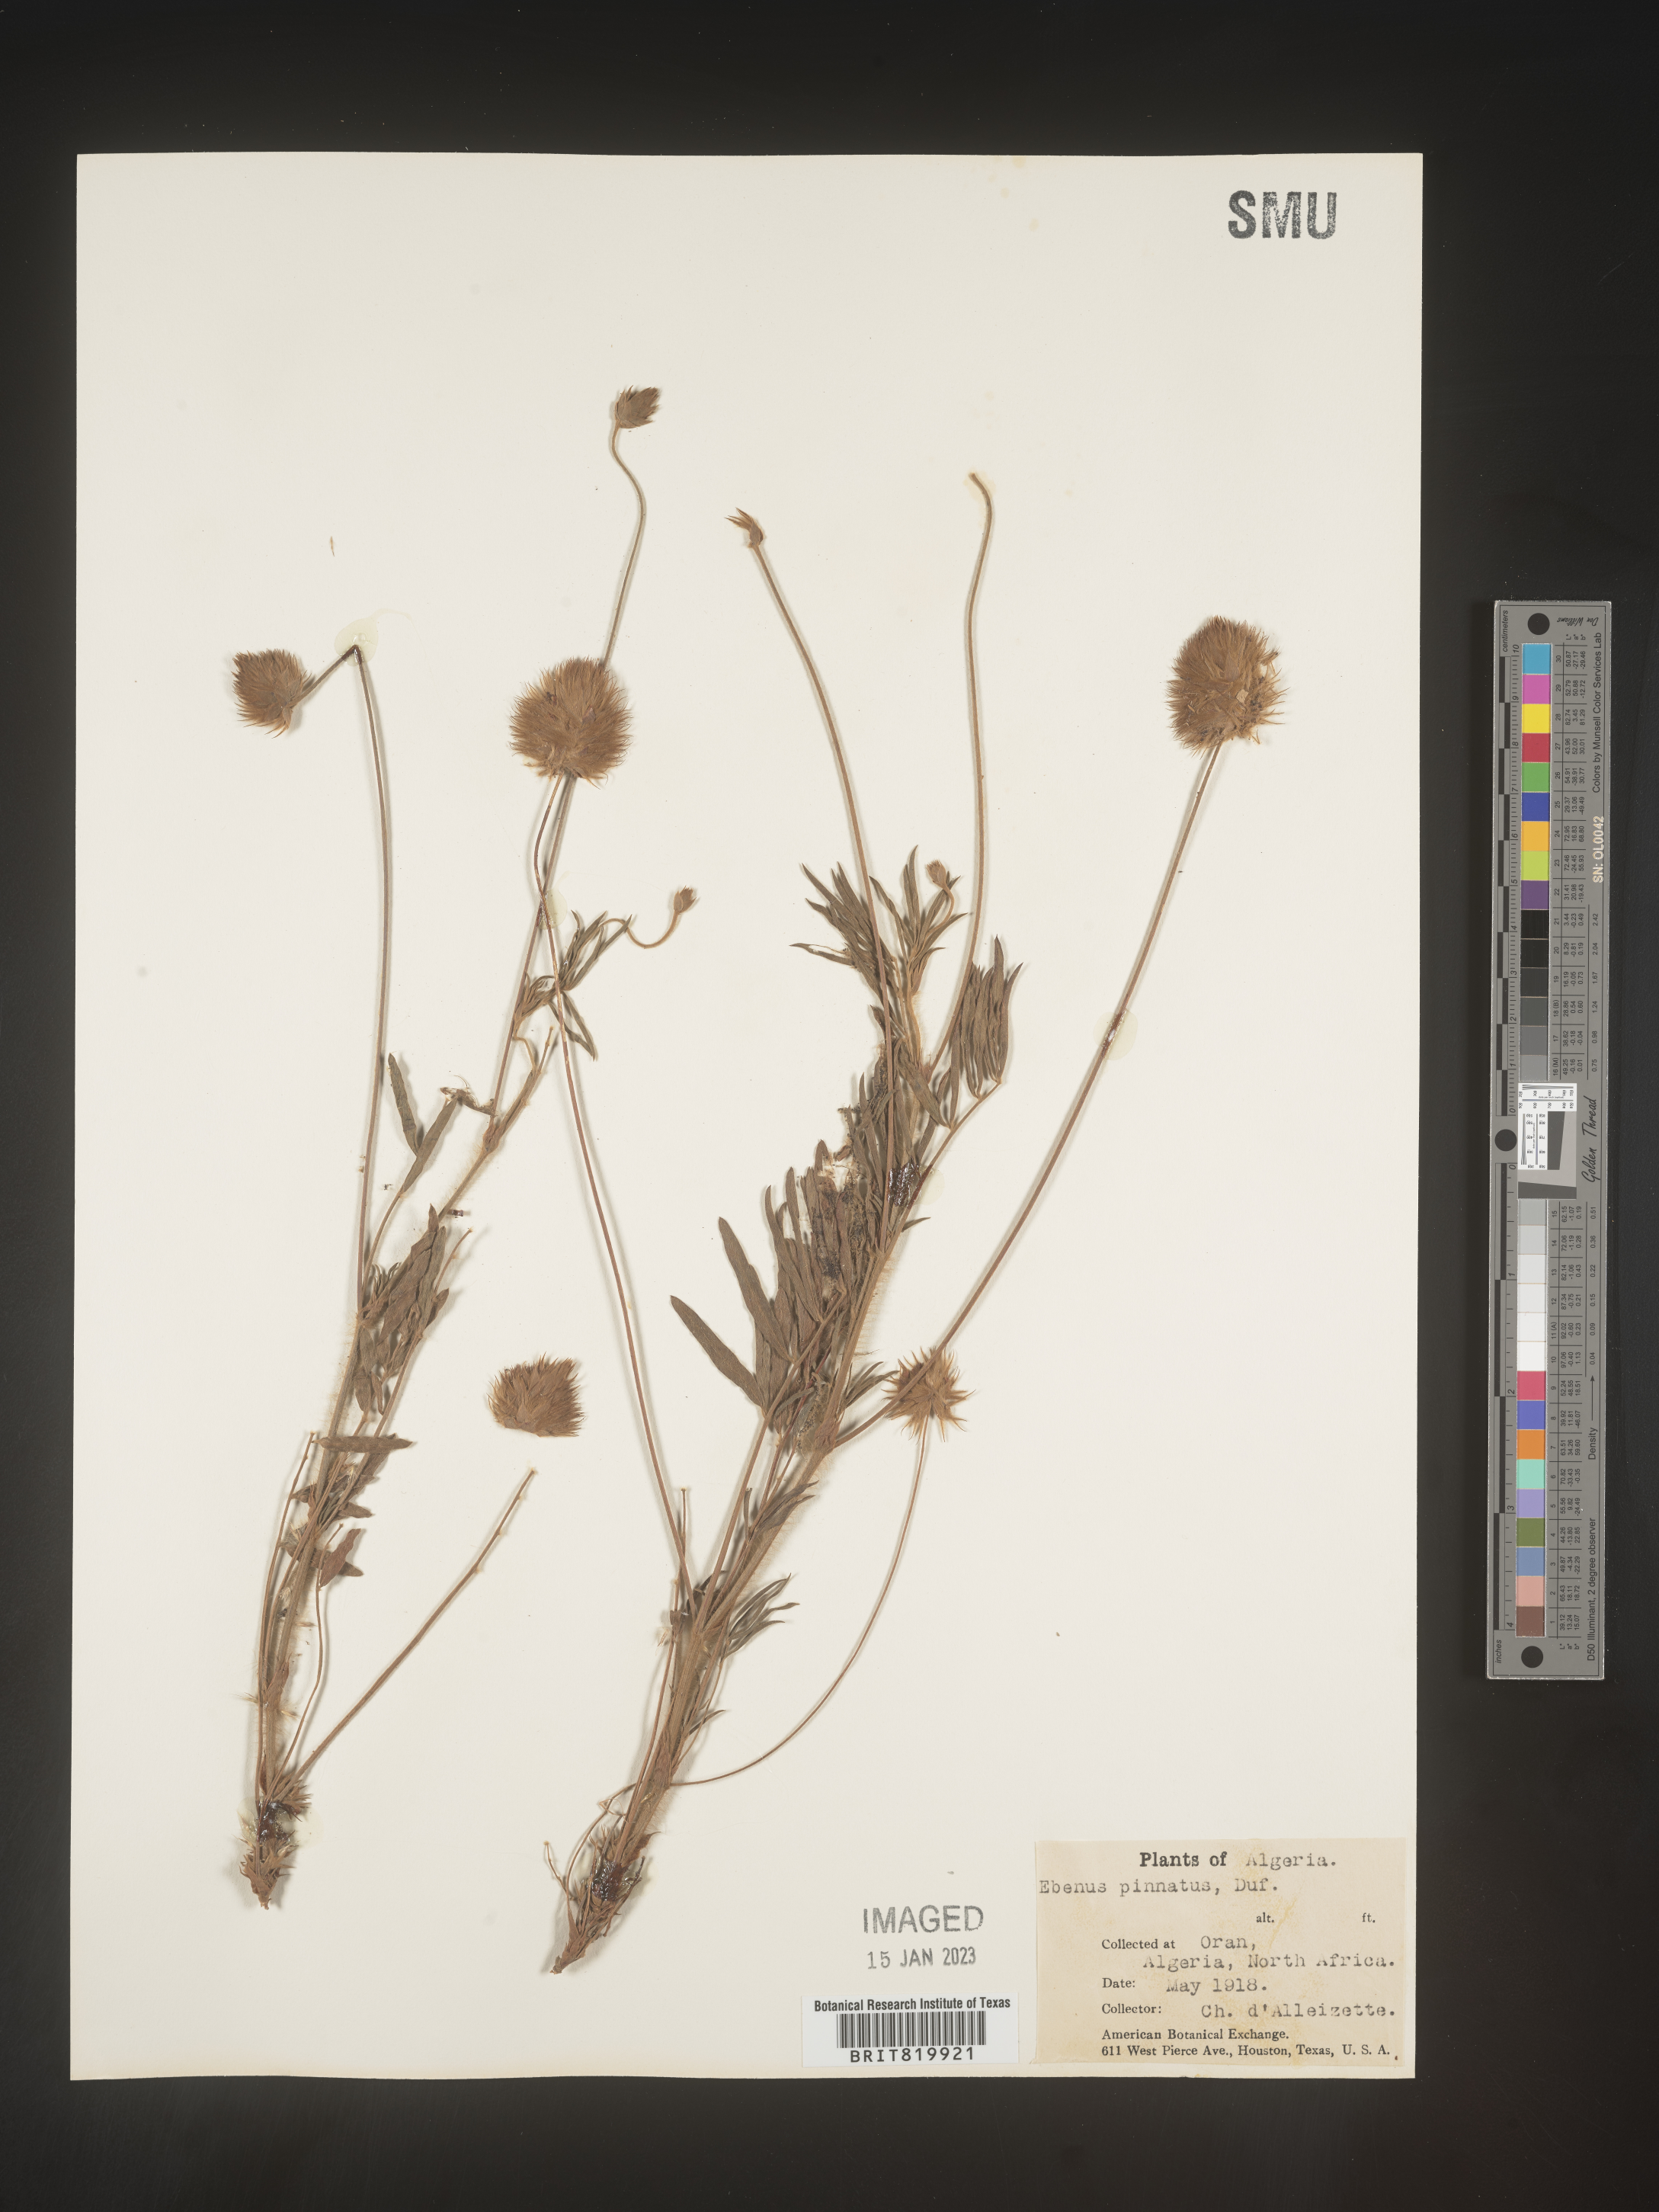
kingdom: Plantae
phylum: Tracheophyta
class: Magnoliopsida
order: Fabales
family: Fabaceae
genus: Ebenus
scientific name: Ebenus
